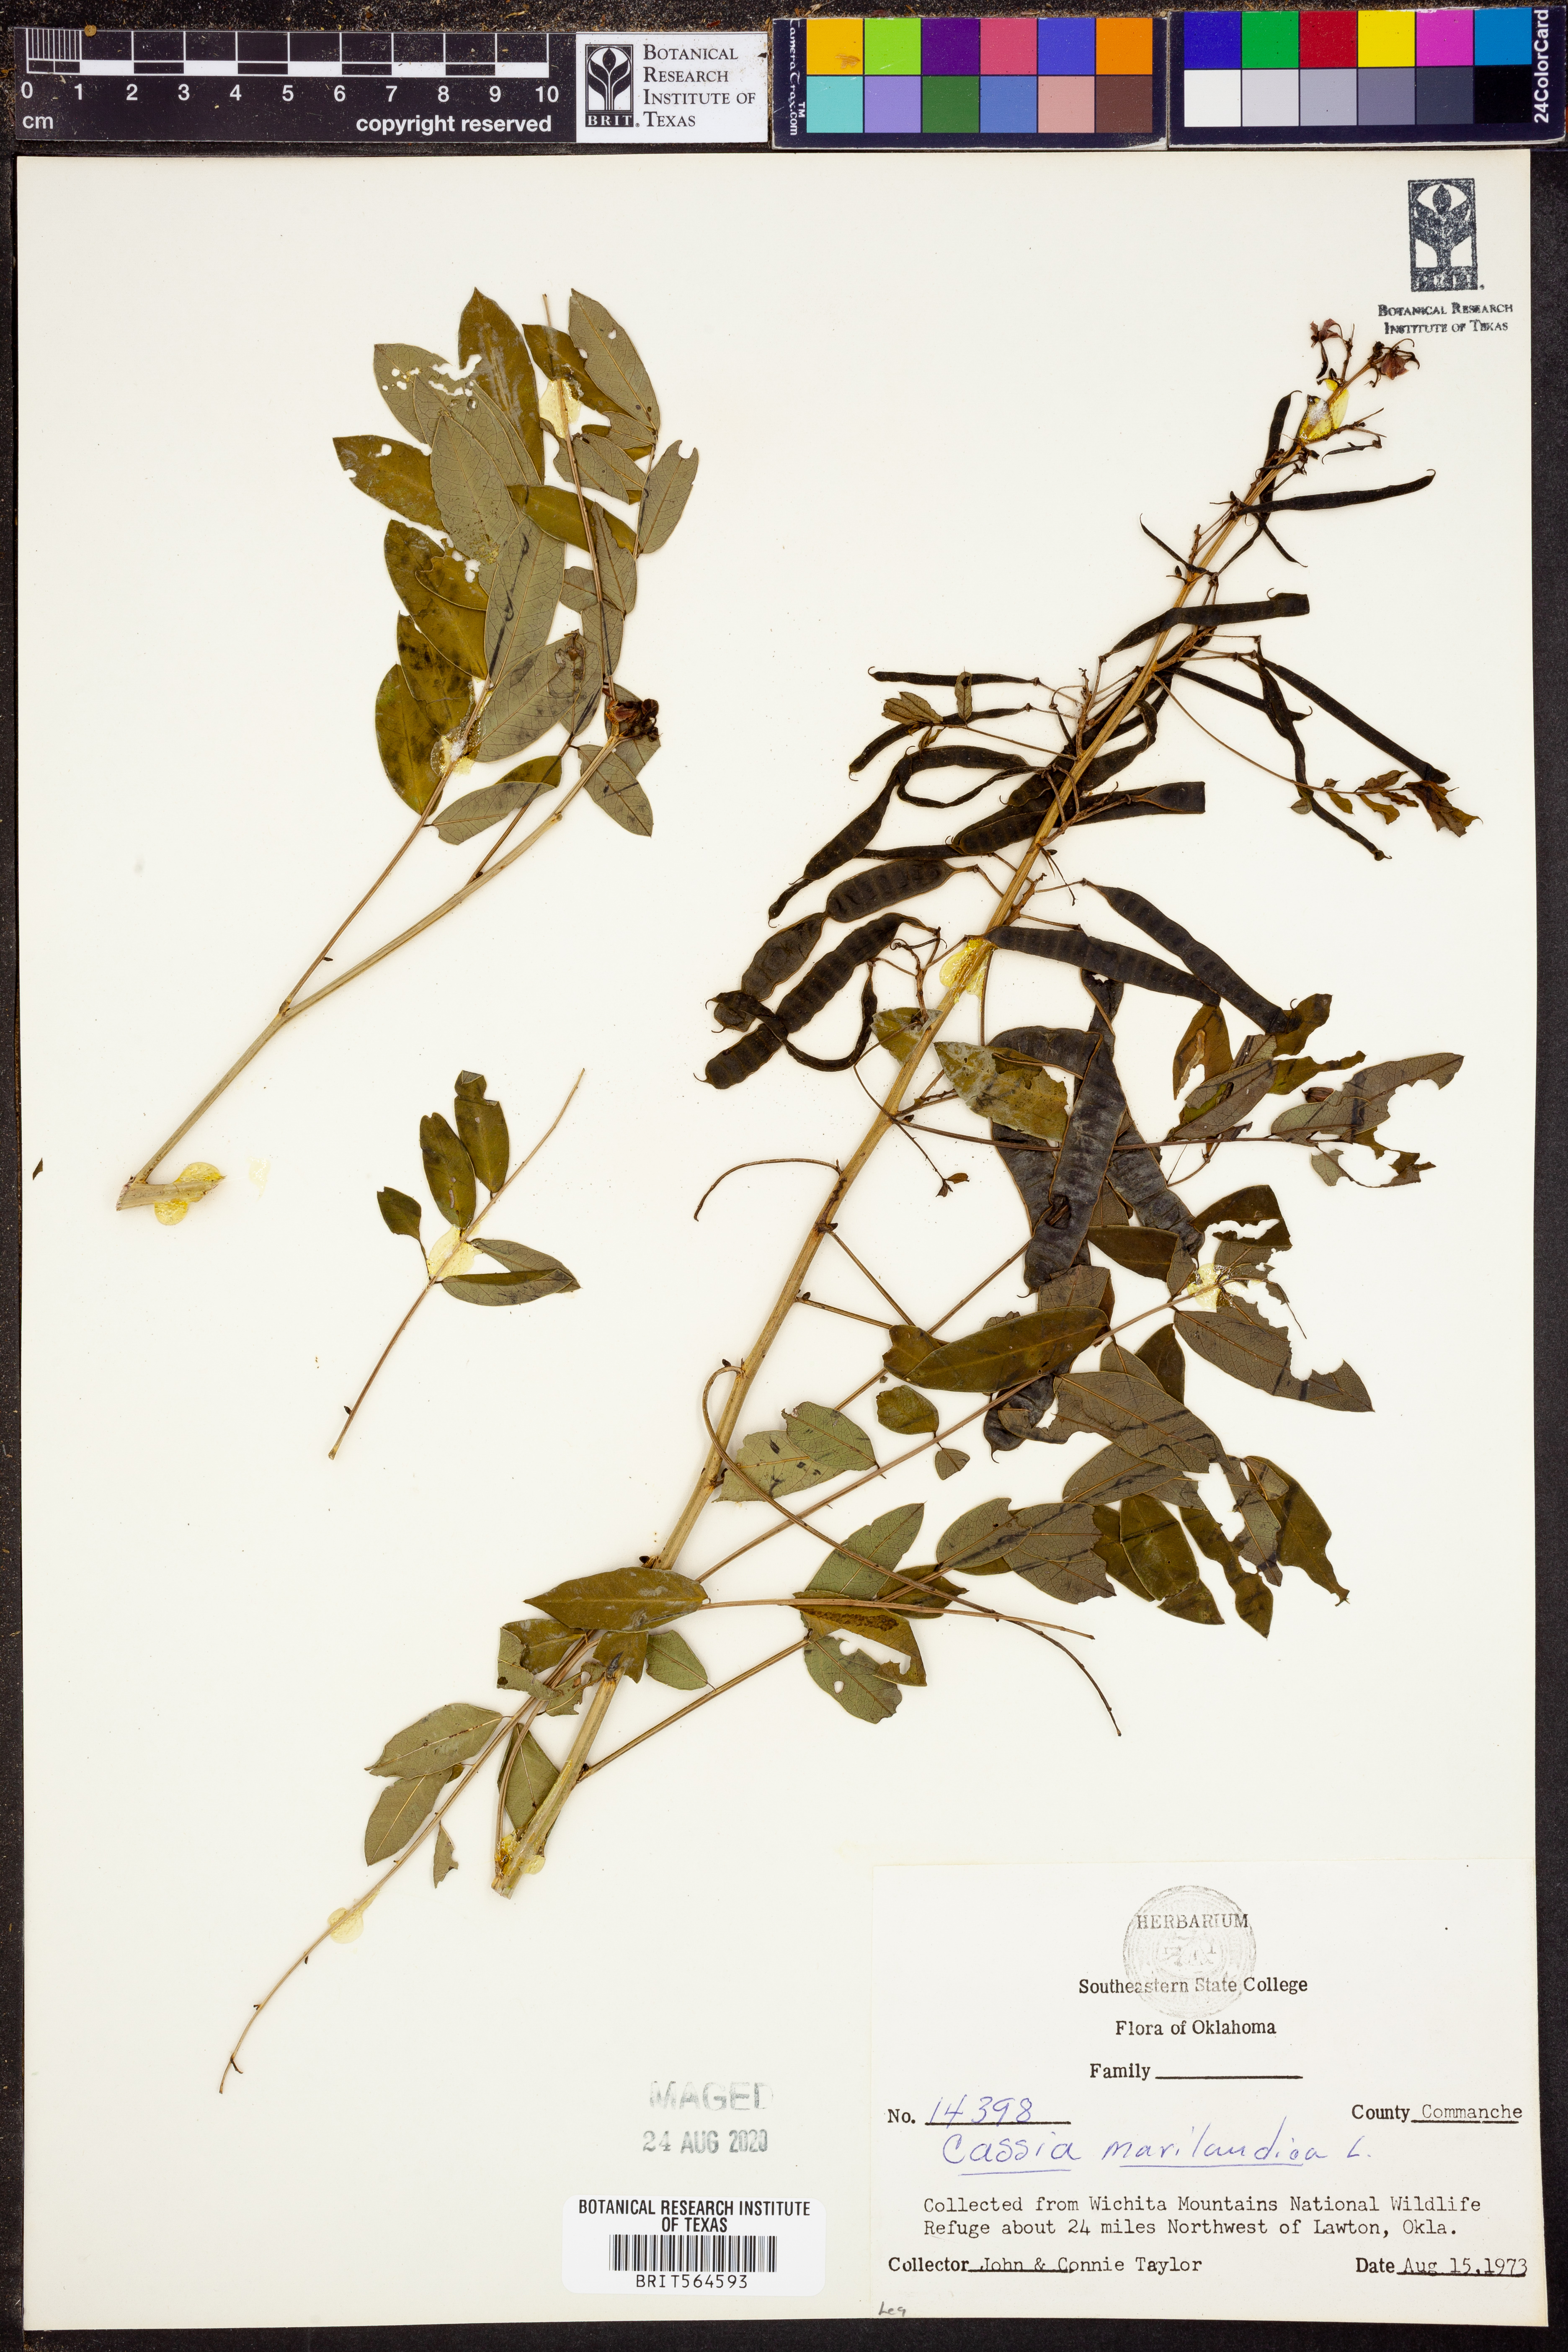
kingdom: Plantae
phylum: Tracheophyta
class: Magnoliopsida
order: Fabales
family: Fabaceae
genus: Senna
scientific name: Senna marilandica
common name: American senna
